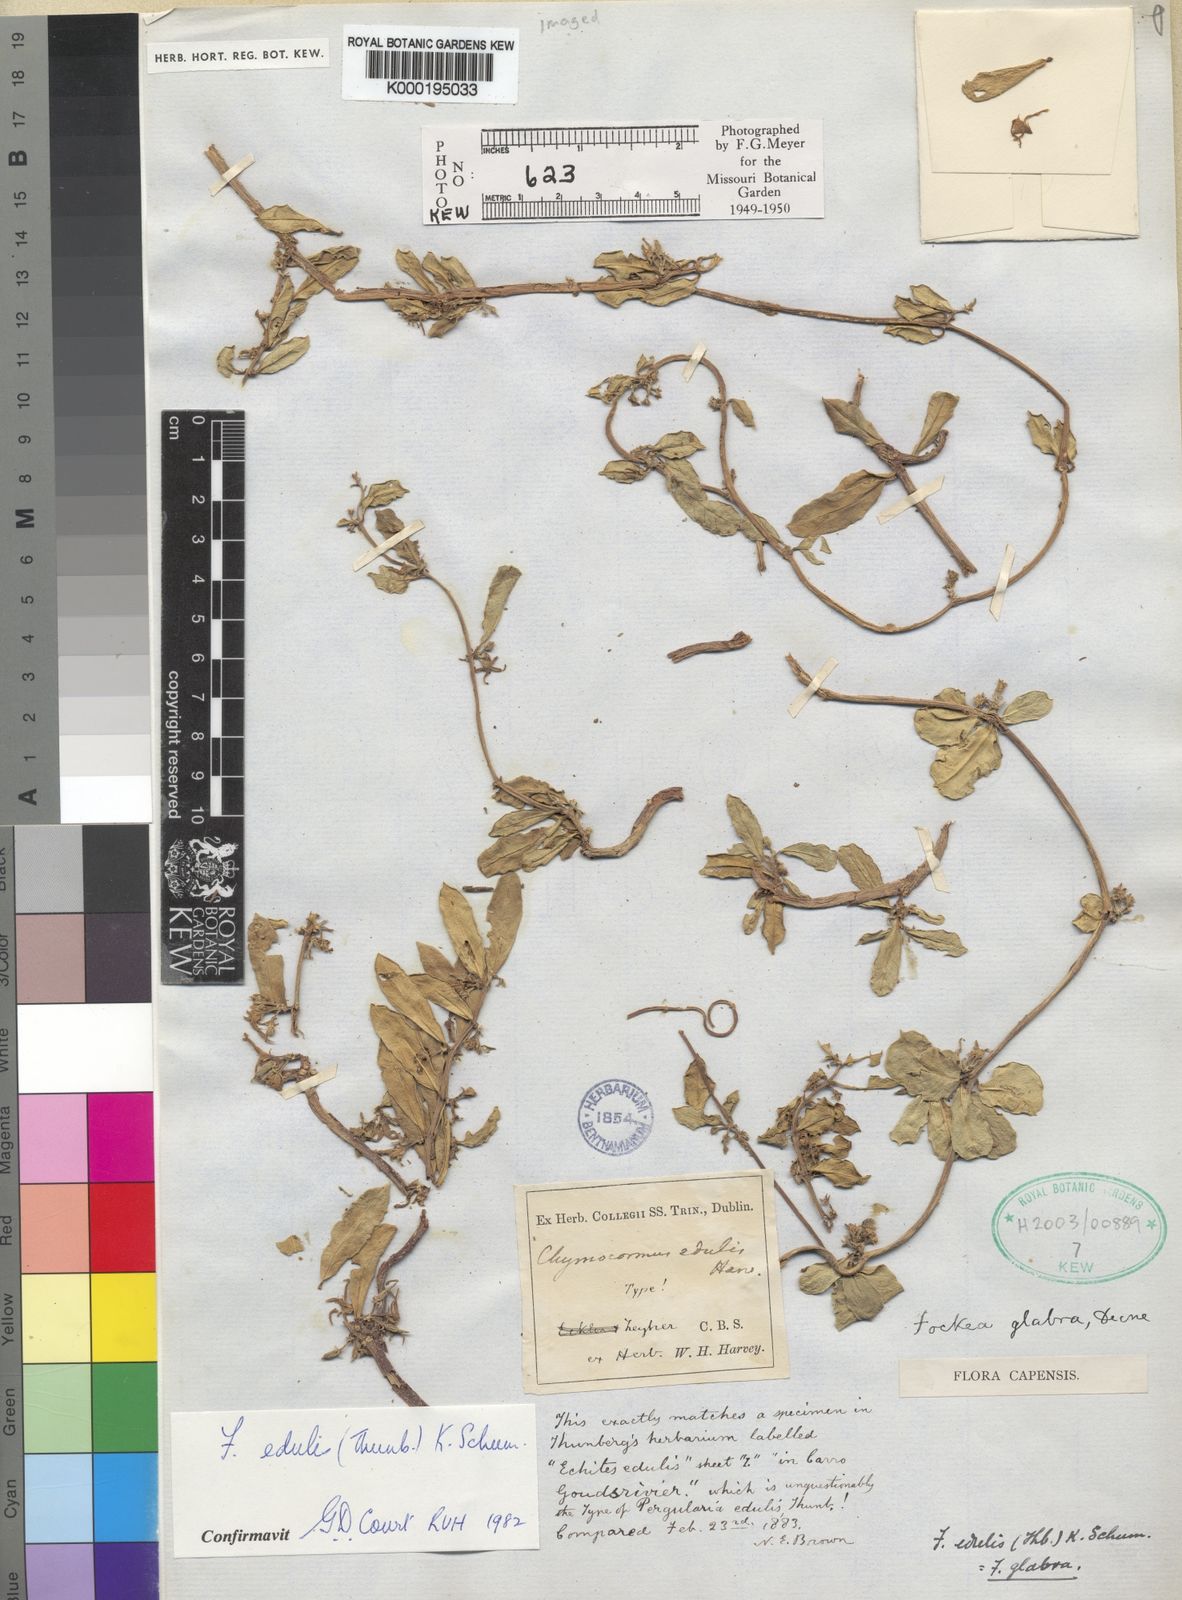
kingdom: Plantae
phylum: Tracheophyta
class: Magnoliopsida
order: Gentianales
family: Apocynaceae
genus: Fockea
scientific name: Fockea edulis
